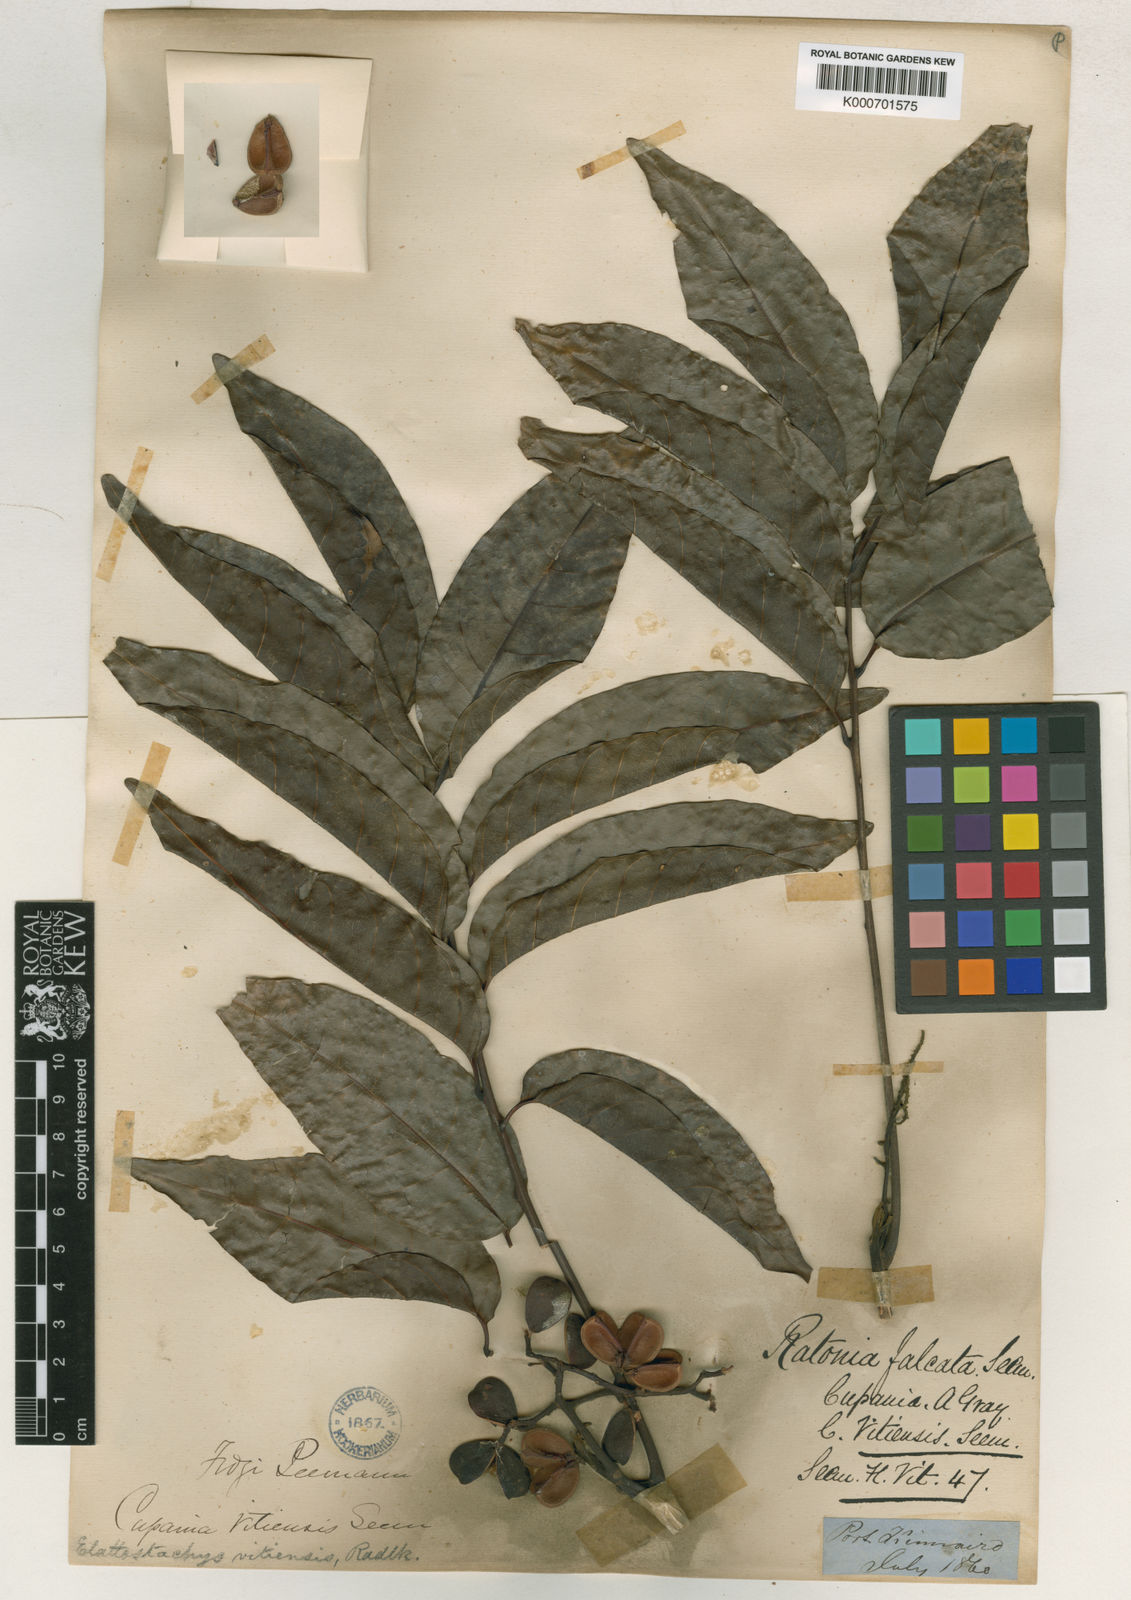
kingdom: Plantae
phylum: Tracheophyta
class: Magnoliopsida
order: Sapindales
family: Sapindaceae
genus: Elattostachys
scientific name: Elattostachys apetala
